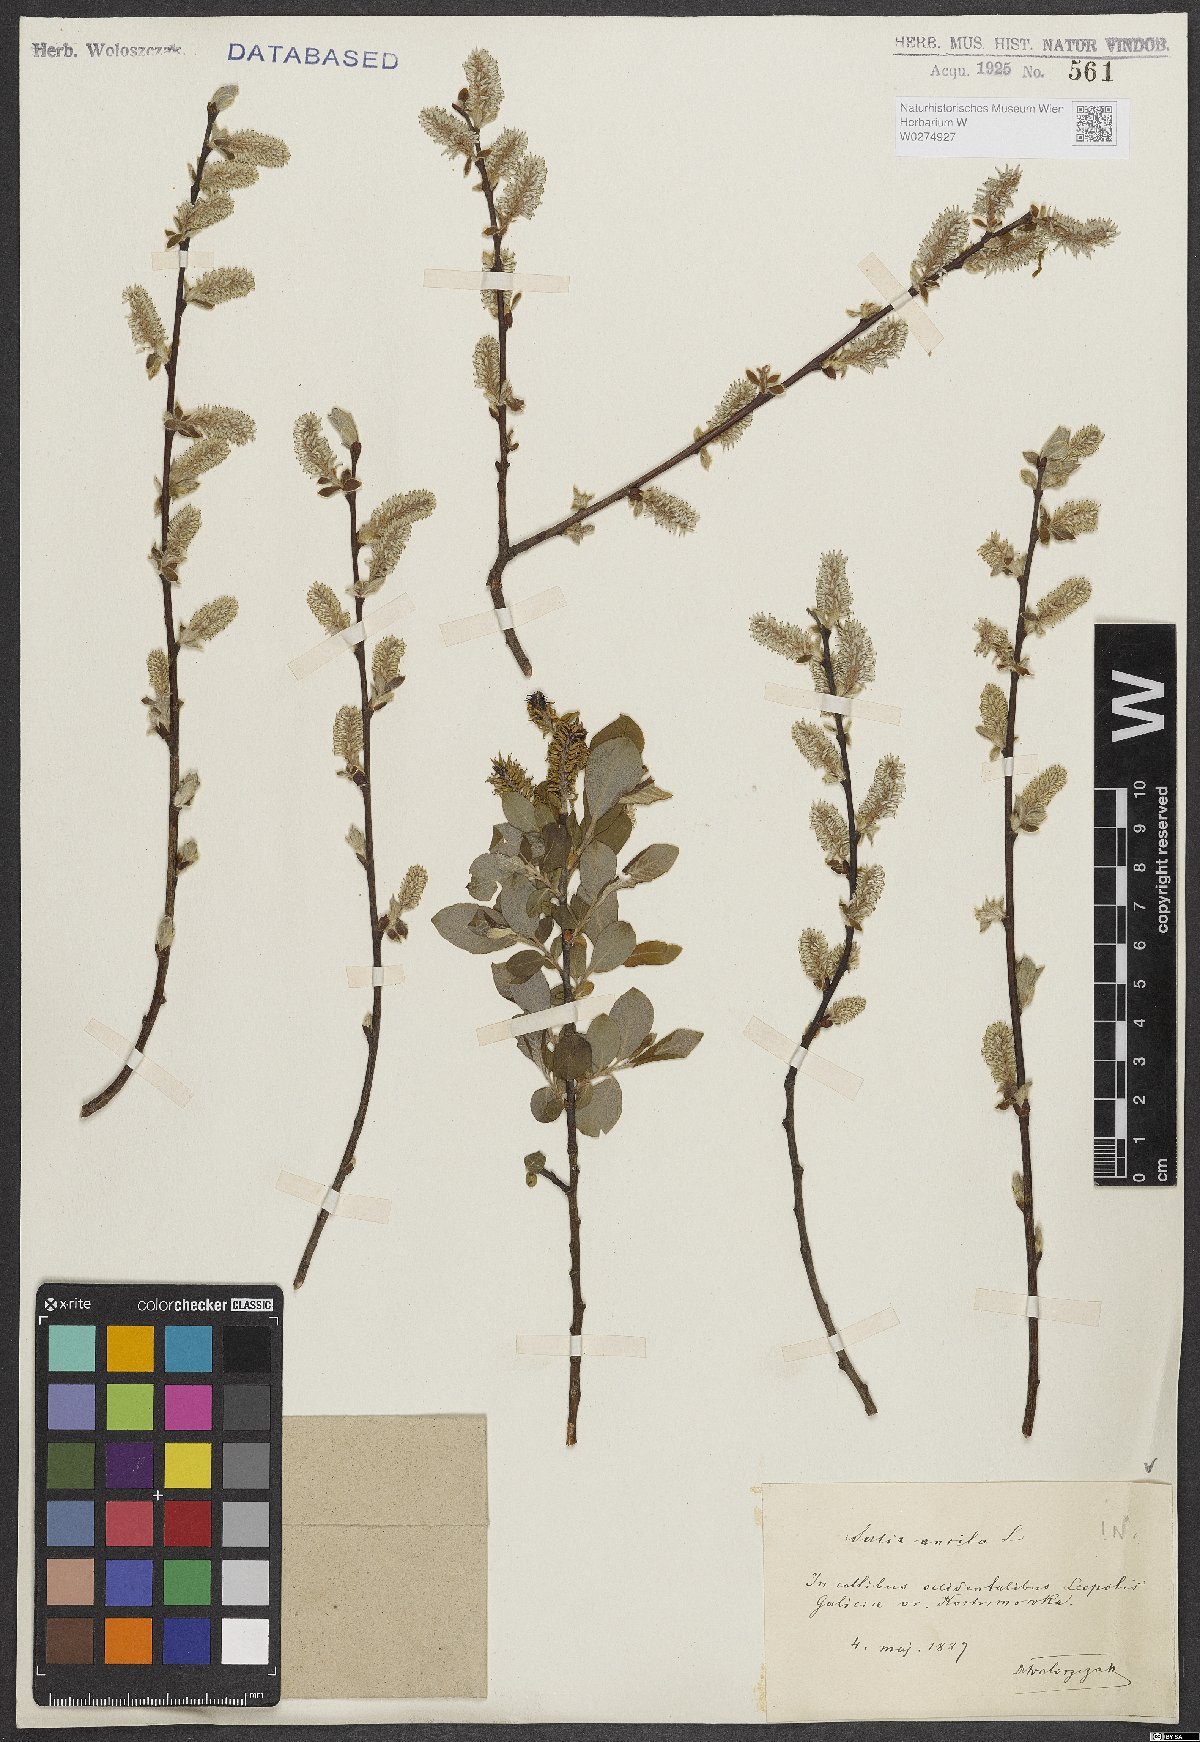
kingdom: Plantae
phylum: Tracheophyta
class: Magnoliopsida
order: Malpighiales
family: Salicaceae
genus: Salix
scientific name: Salix aurita
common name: Eared willow
